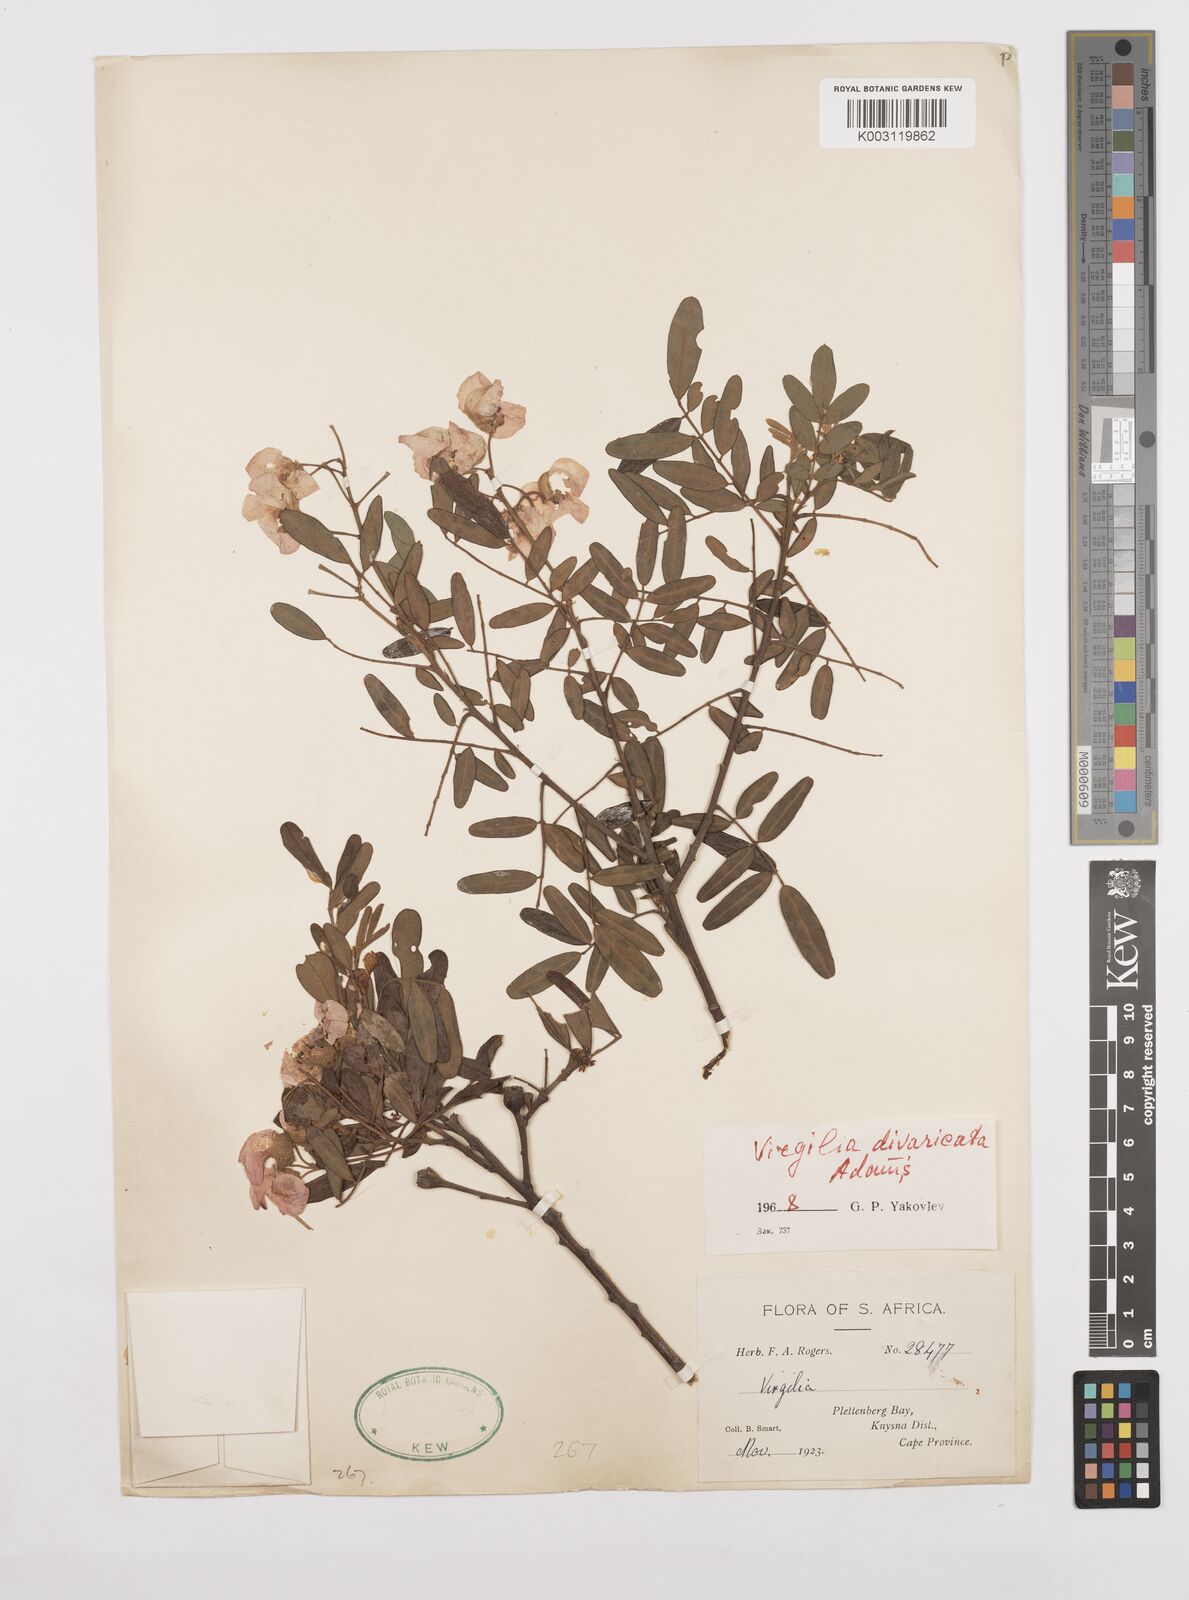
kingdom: Plantae
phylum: Tracheophyta
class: Magnoliopsida
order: Fabales
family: Fabaceae
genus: Virgilia
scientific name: Virgilia divaricata
